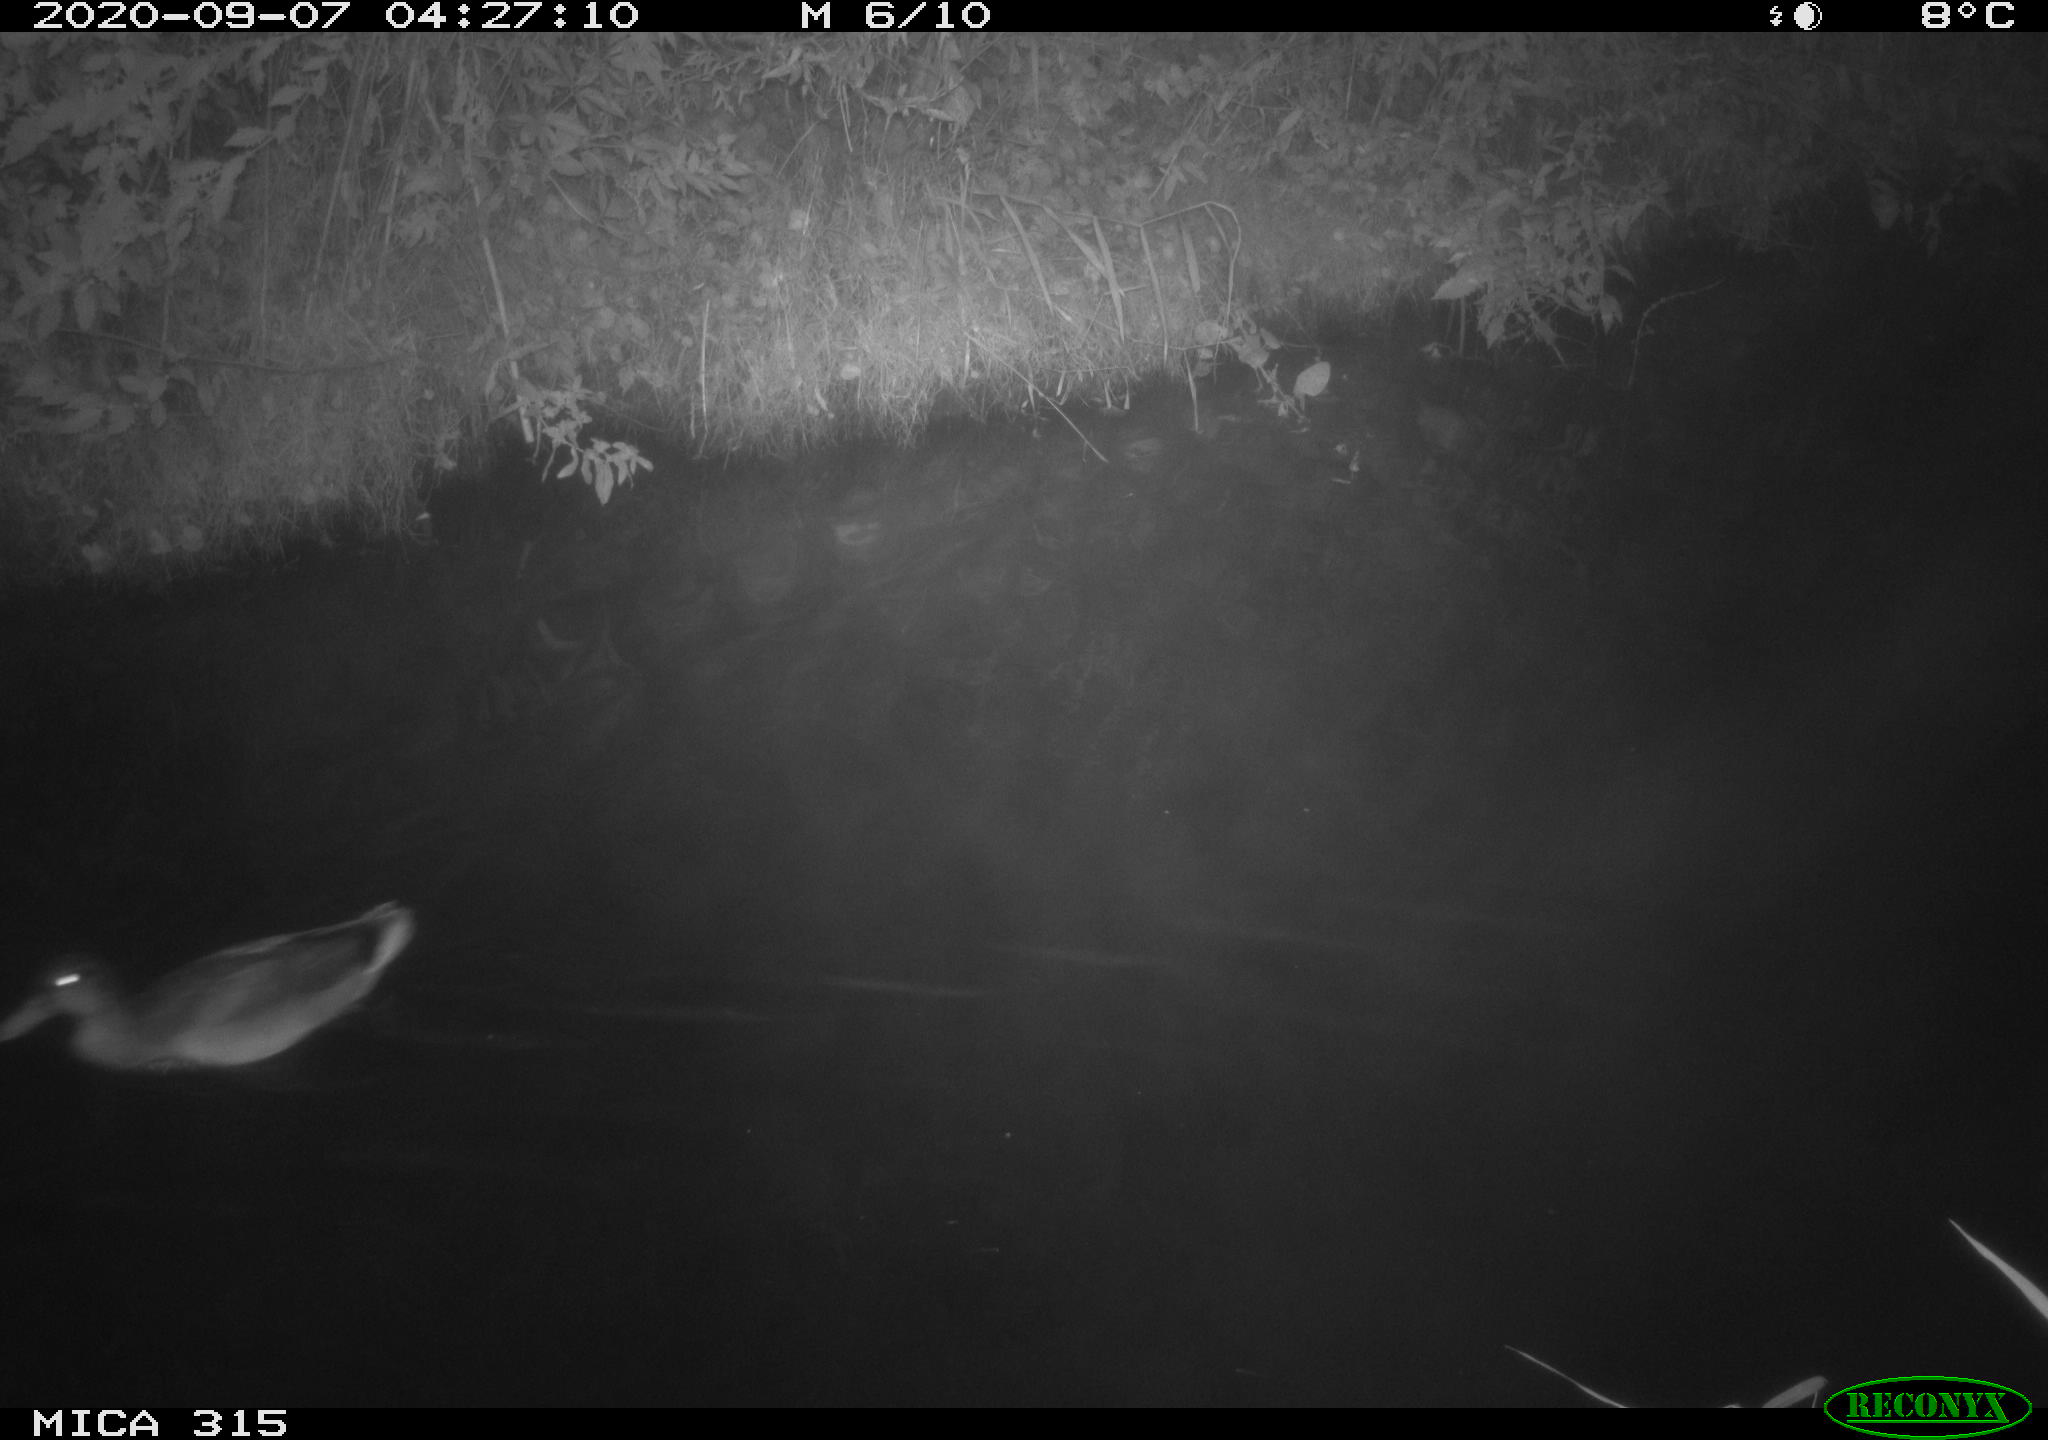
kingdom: Animalia
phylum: Chordata
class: Aves
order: Anseriformes
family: Anatidae
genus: Anas
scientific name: Anas platyrhynchos
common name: Mallard
